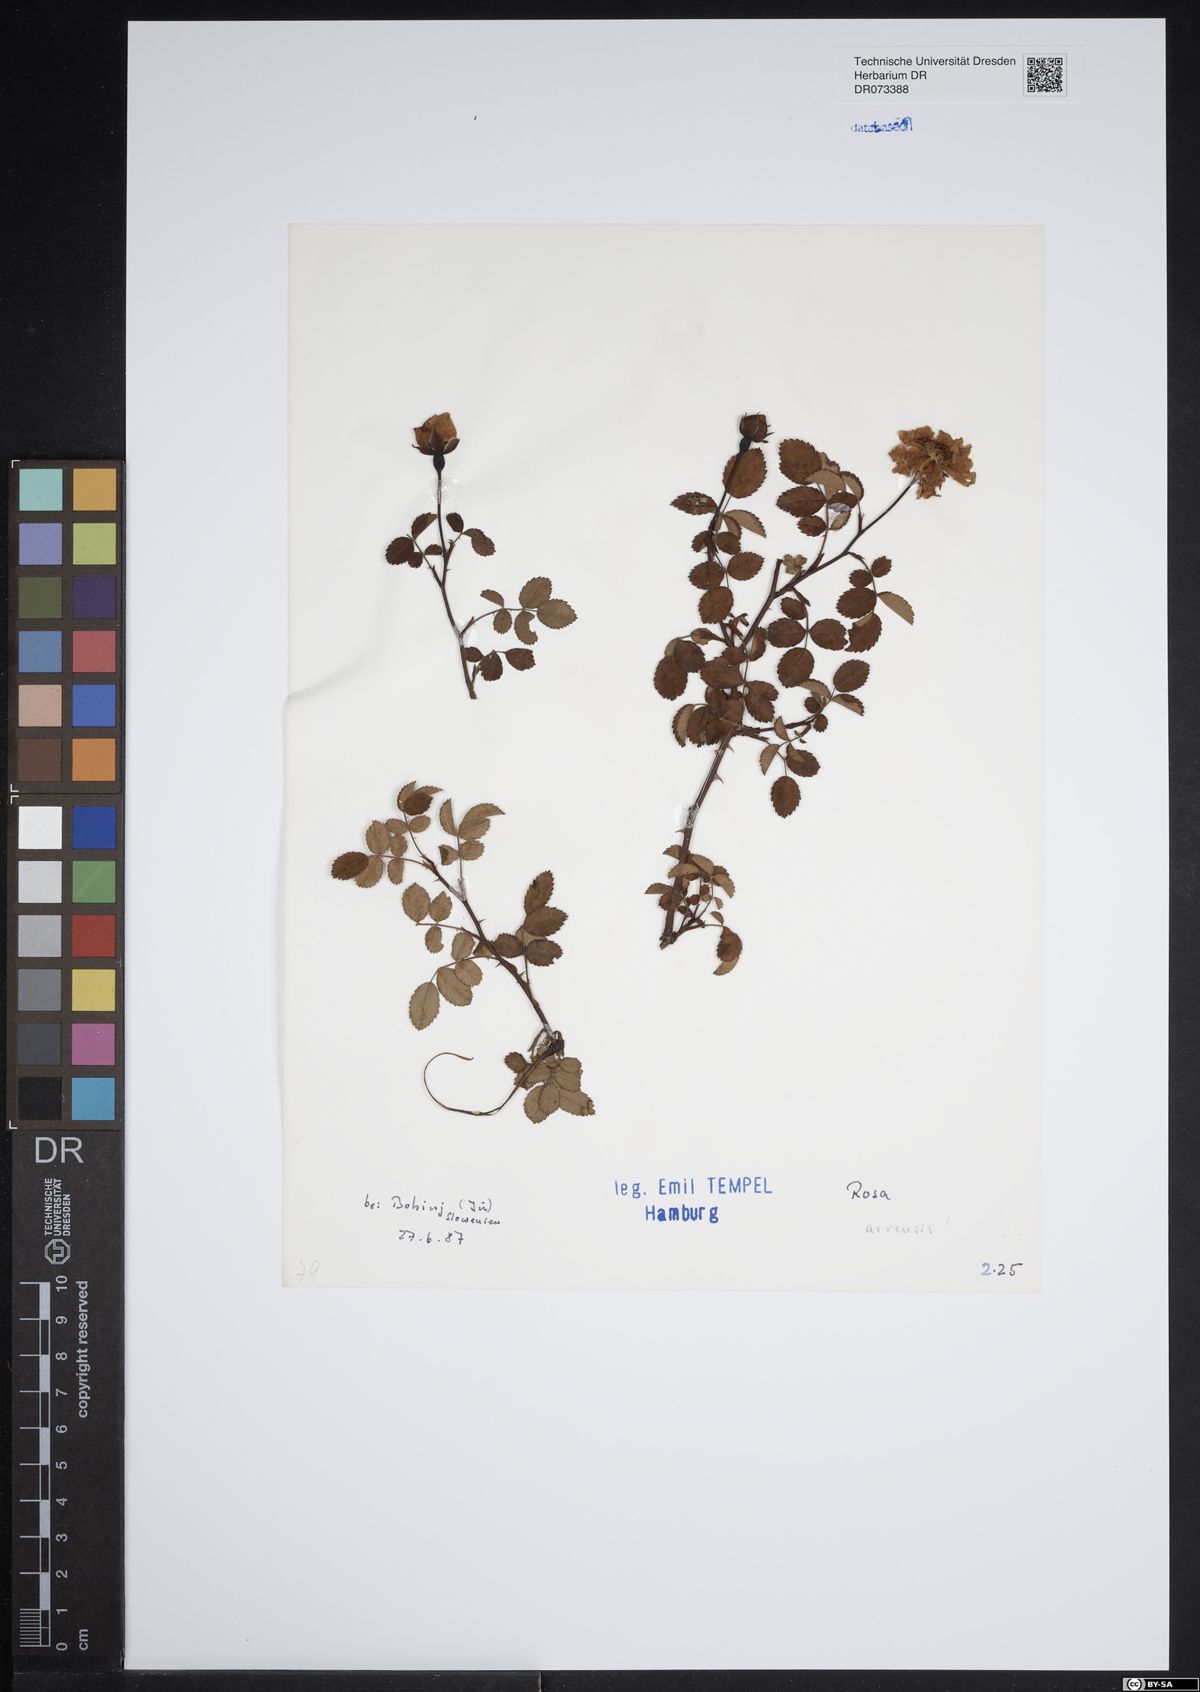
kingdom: Plantae
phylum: Tracheophyta
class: Magnoliopsida
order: Rosales
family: Rosaceae
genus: Rosa
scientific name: Rosa arvensis
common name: Field rose
